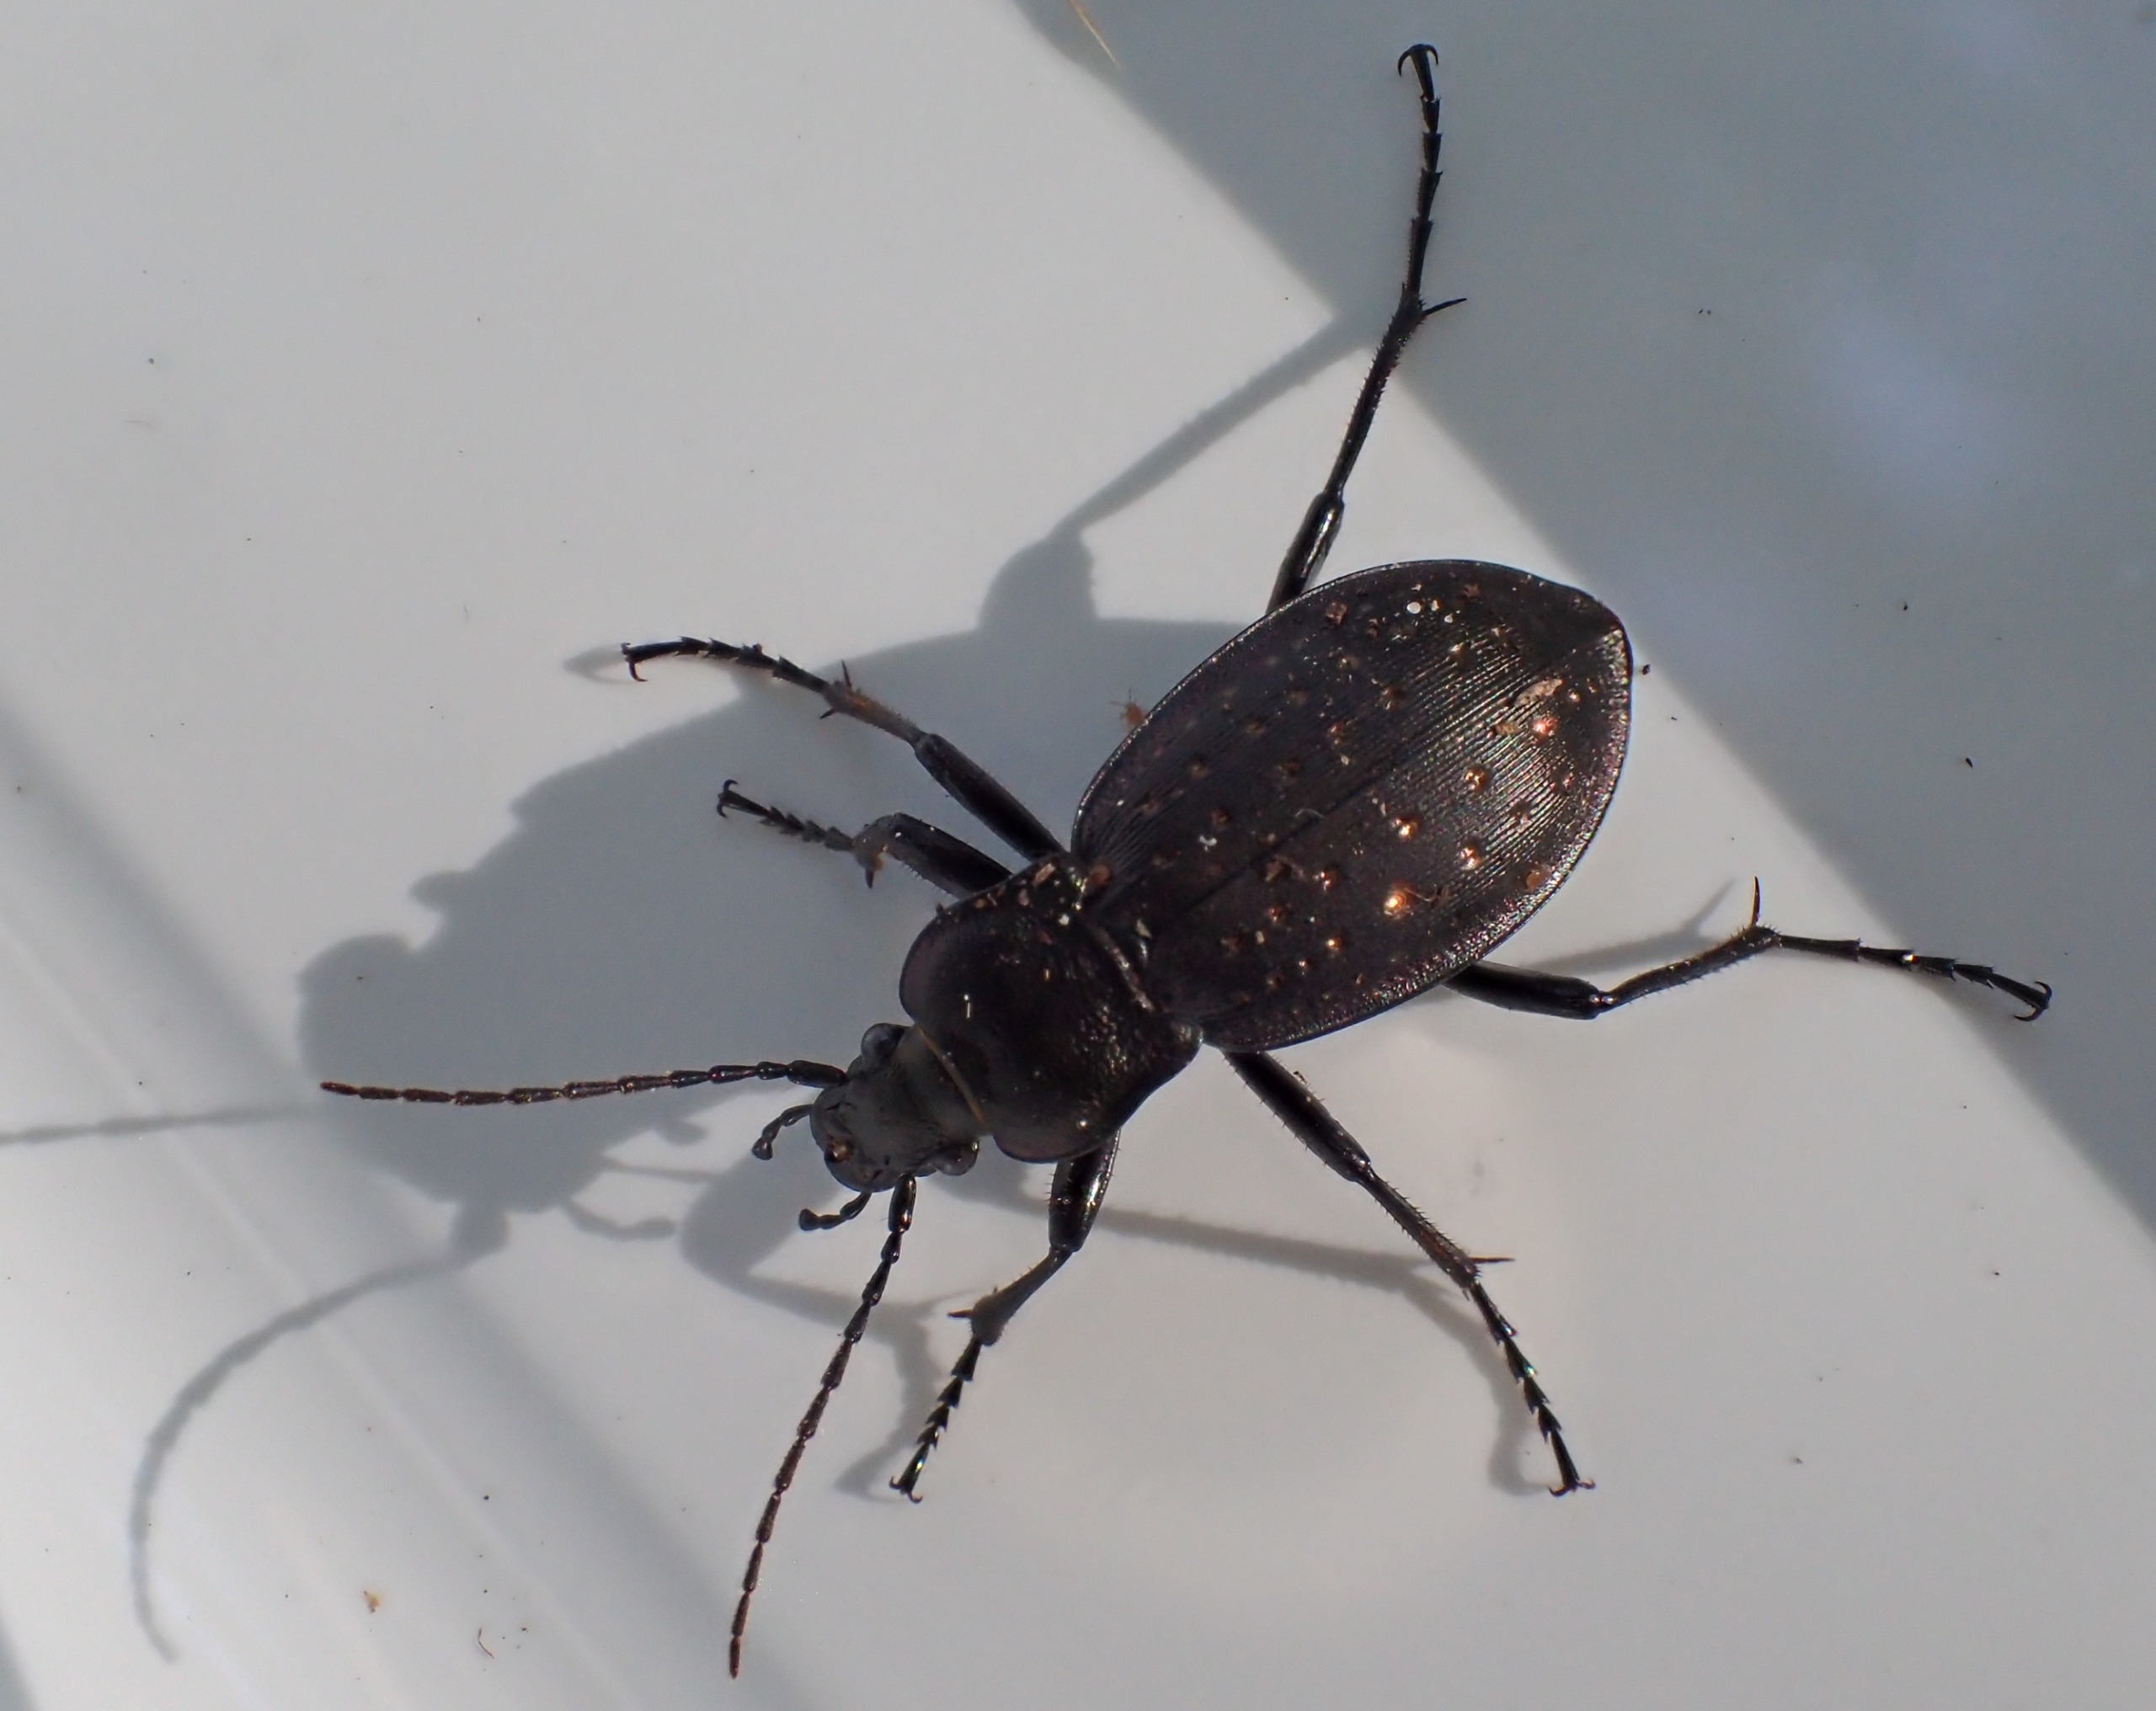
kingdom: Animalia
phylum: Arthropoda
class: Insecta
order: Coleoptera
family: Carabidae
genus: Carabus
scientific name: Carabus hortensis
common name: Guldpletløber
